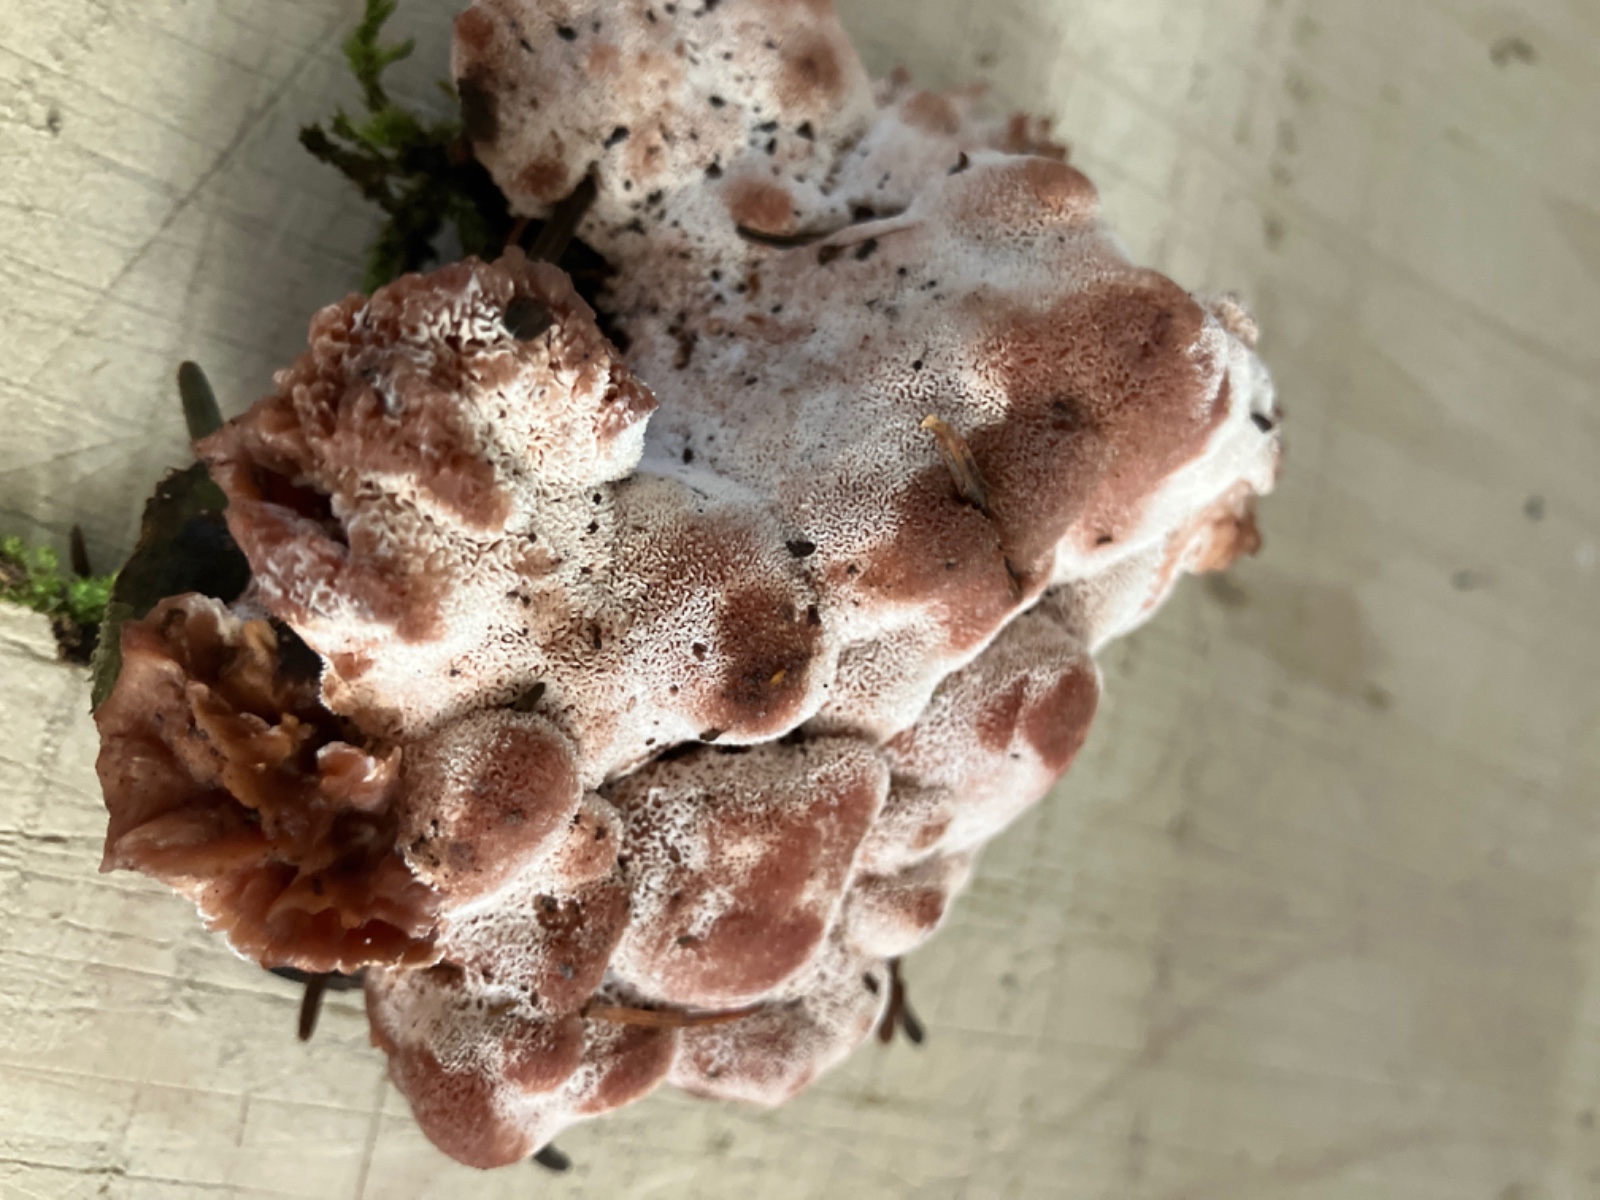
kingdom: Fungi
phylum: Basidiomycota
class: Agaricomycetes
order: Polyporales
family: Podoscyphaceae
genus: Abortiporus
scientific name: Abortiporus biennis
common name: rødmende pjalteporesvamp
